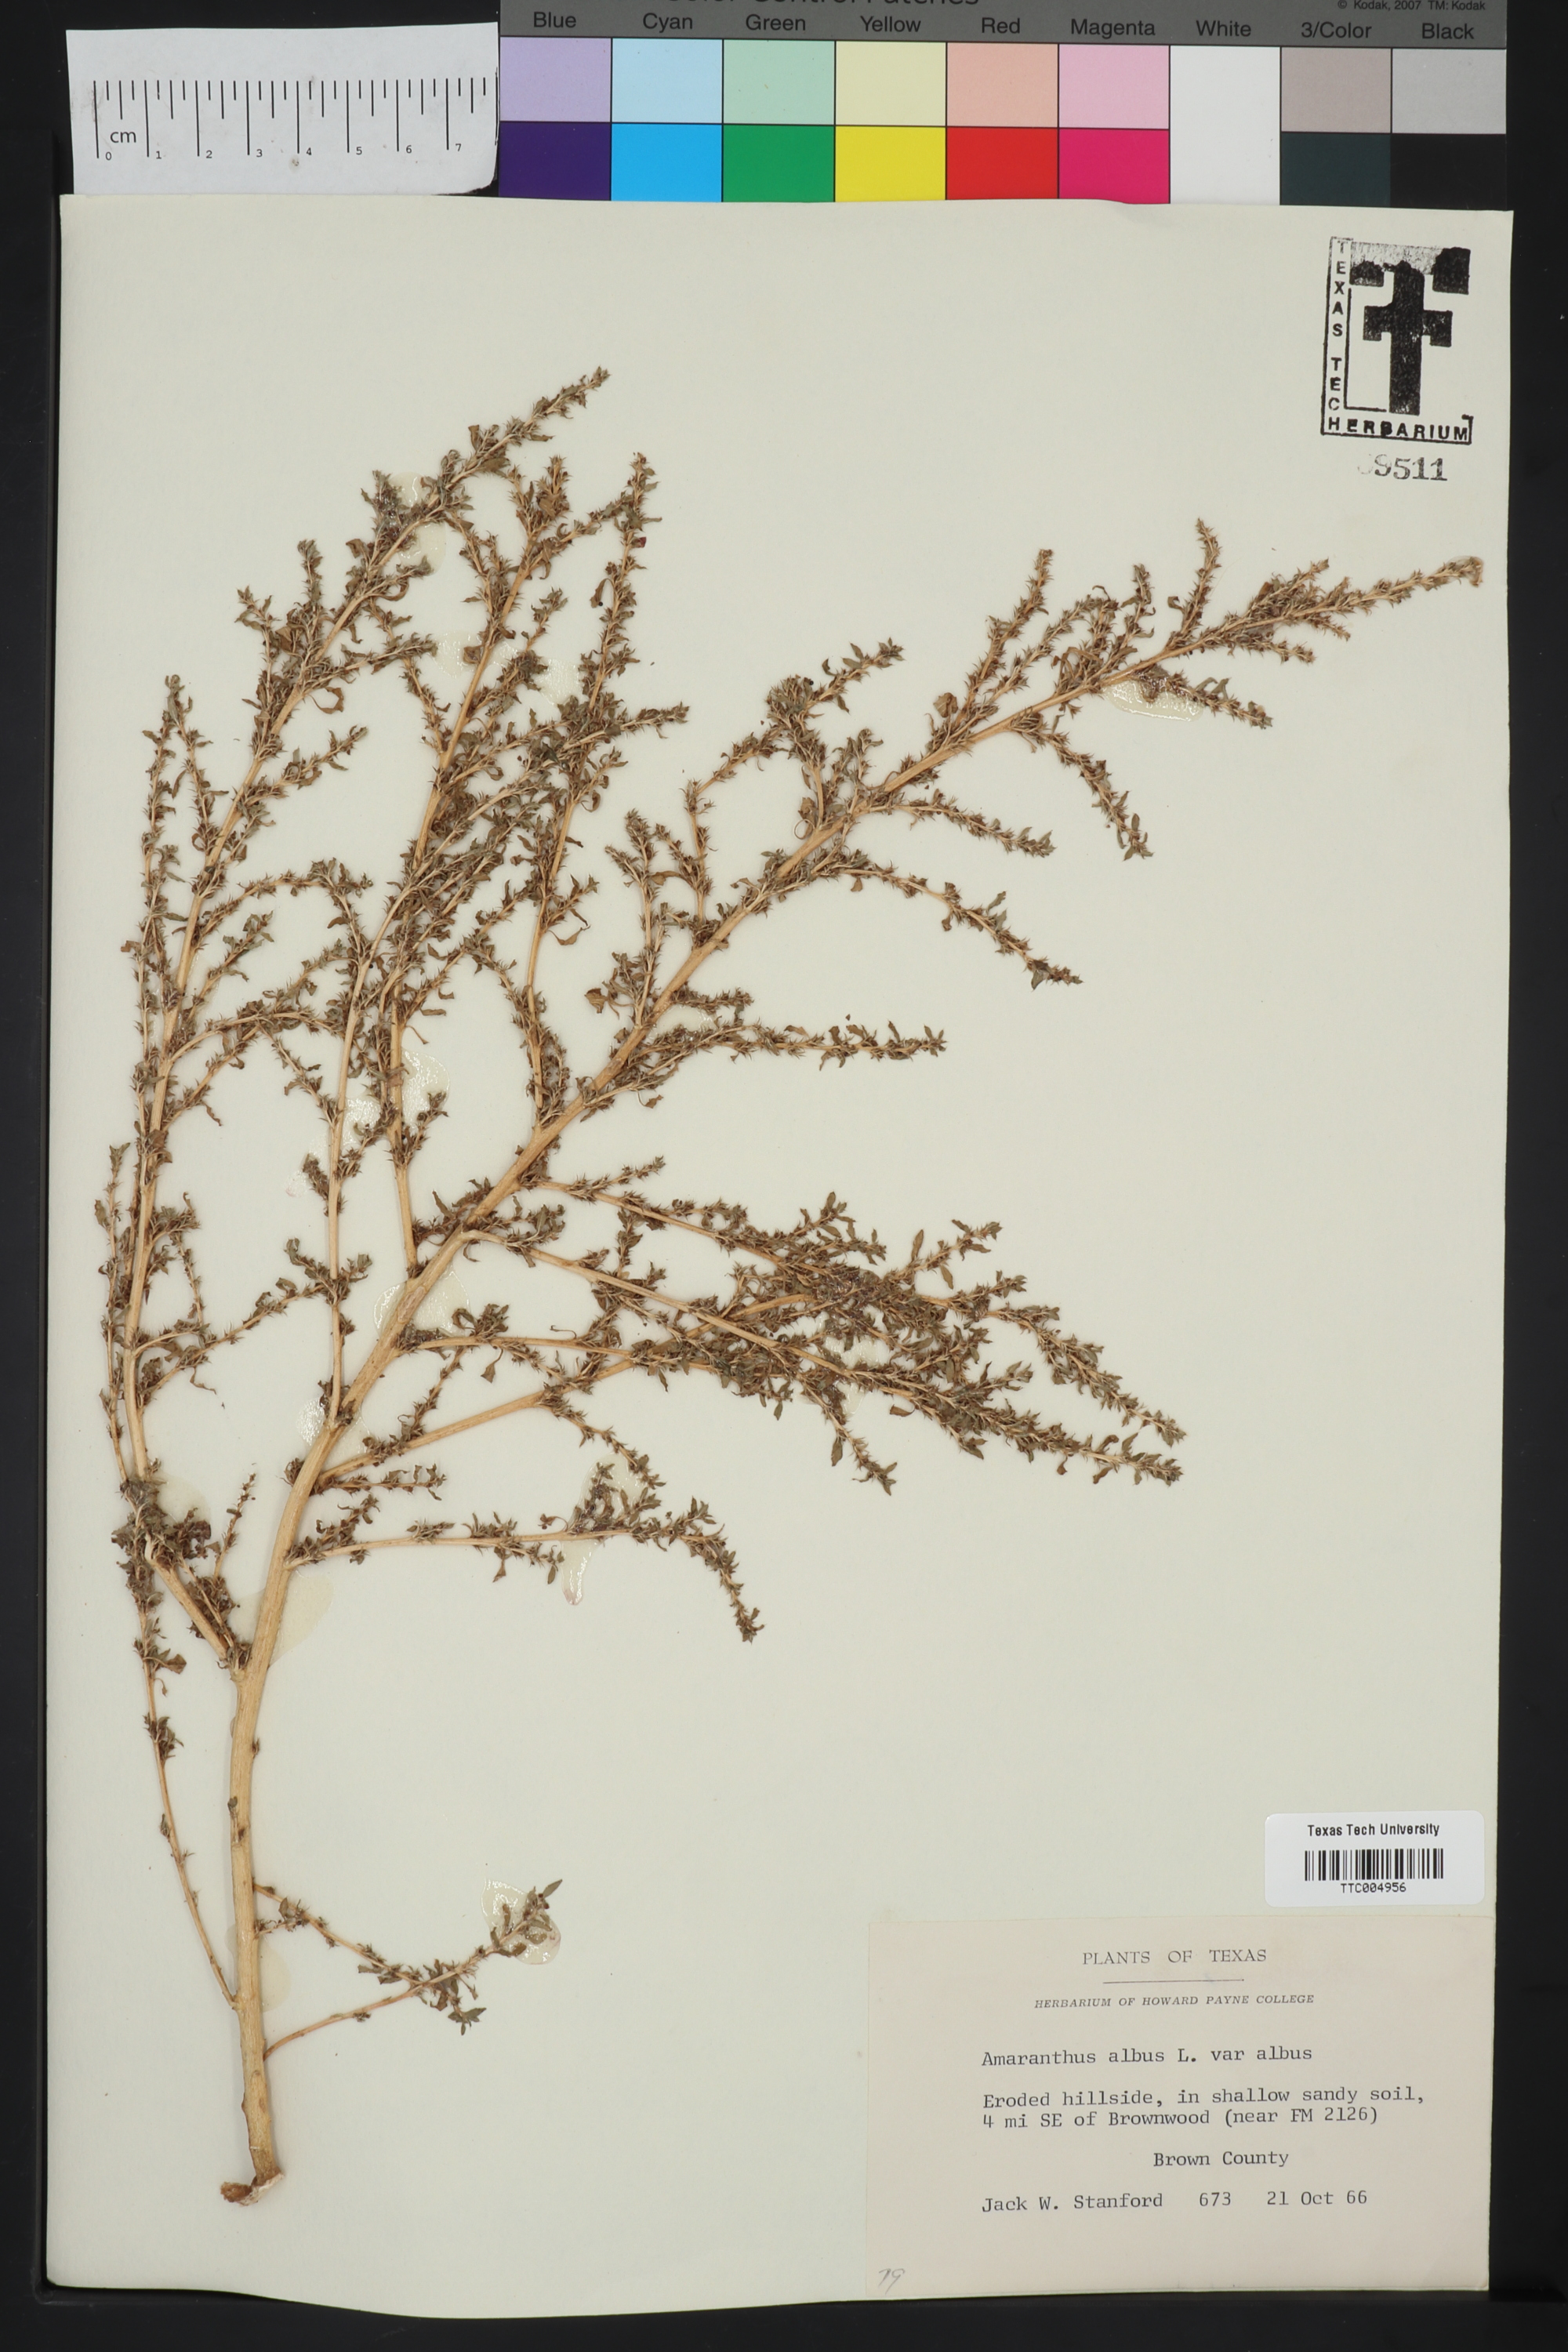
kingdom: Plantae
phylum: Tracheophyta
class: Magnoliopsida
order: Caryophyllales
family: Amaranthaceae
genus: Amaranthus
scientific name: Amaranthus albus
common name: White pigweed
